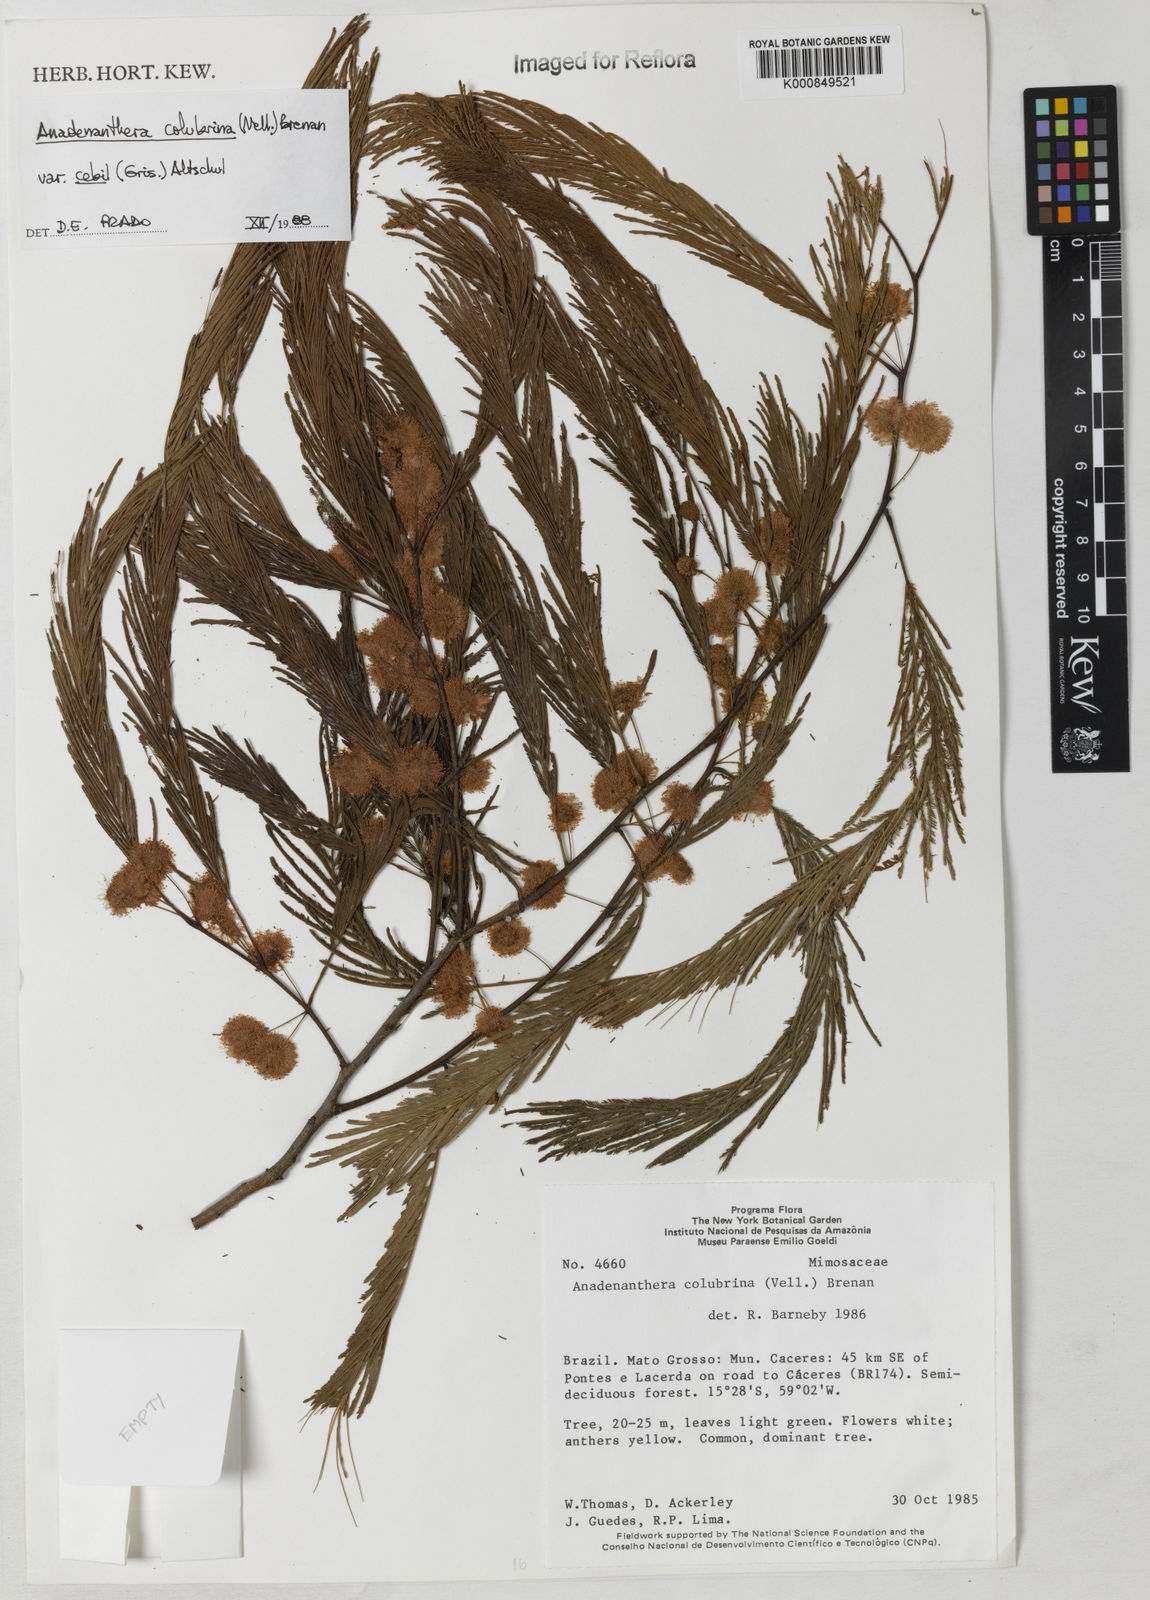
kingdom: Plantae
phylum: Tracheophyta
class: Magnoliopsida
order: Fabales
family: Fabaceae
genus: Anadenanthera
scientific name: Anadenanthera colubrina
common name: Curupay
